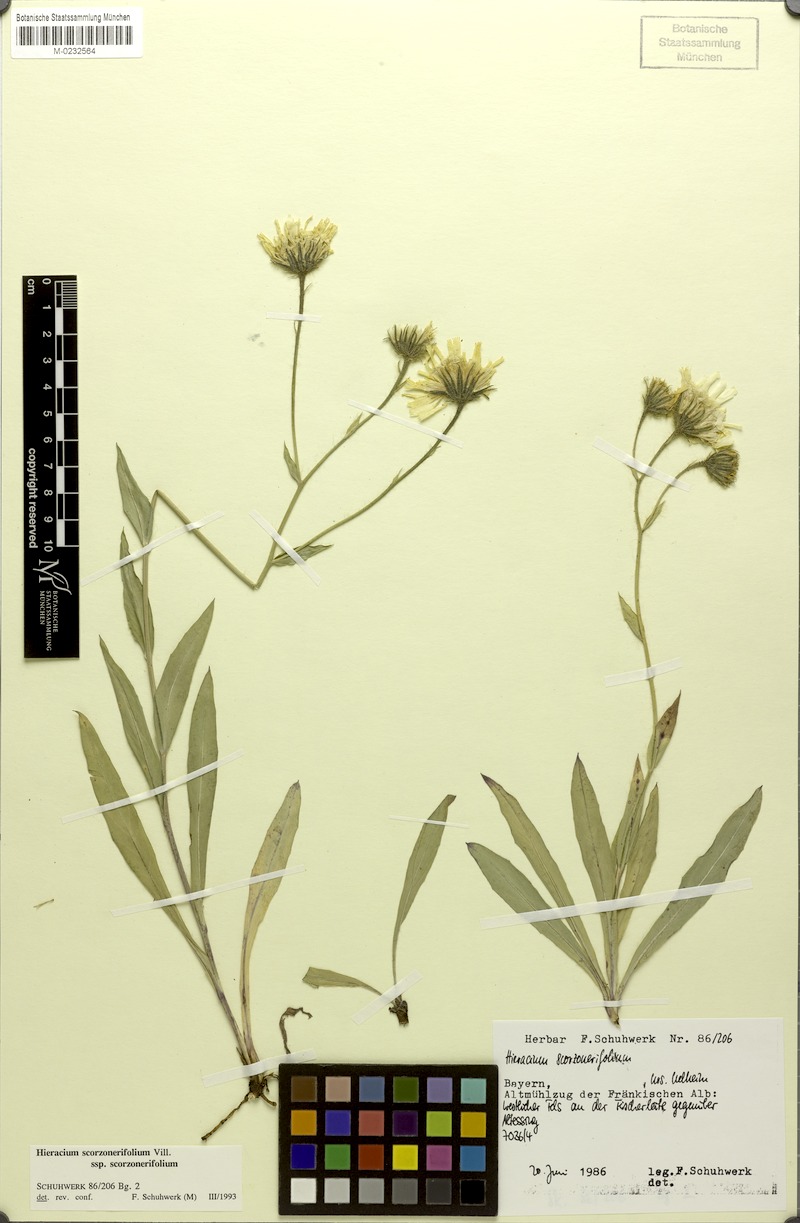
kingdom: Plantae
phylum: Tracheophyta
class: Magnoliopsida
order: Asterales
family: Asteraceae
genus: Hieracium
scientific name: Hieracium scorzonerifolium
